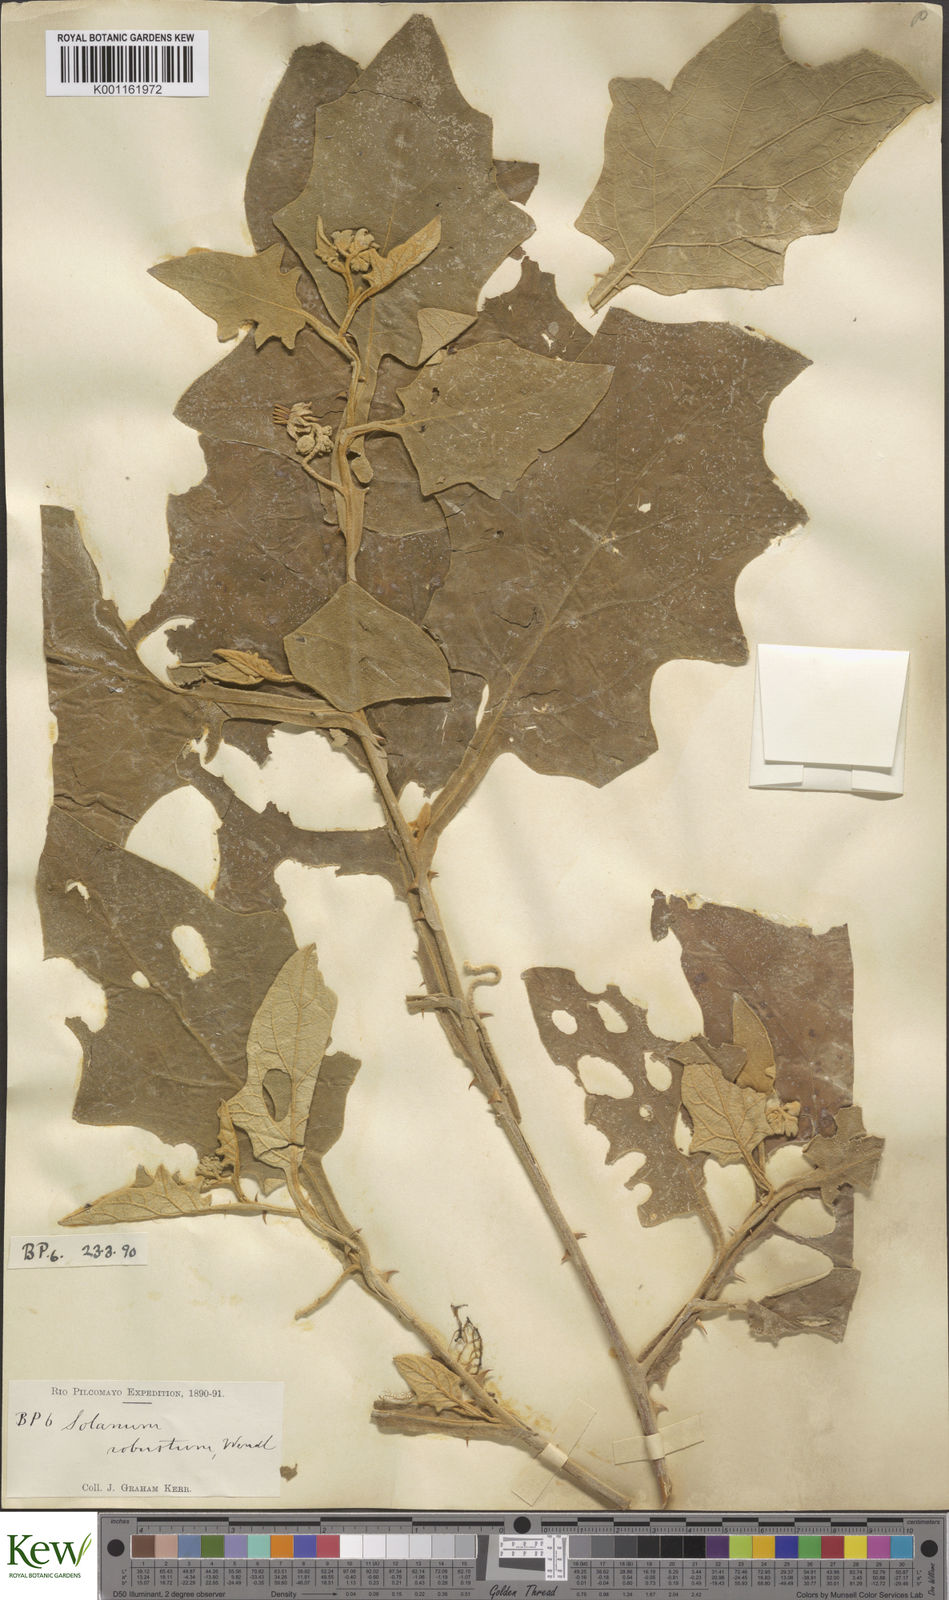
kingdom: Plantae
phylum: Tracheophyta
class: Magnoliopsida
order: Solanales
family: Solanaceae
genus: Solanum
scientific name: Solanum robustum
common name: Shrubby nightshade
